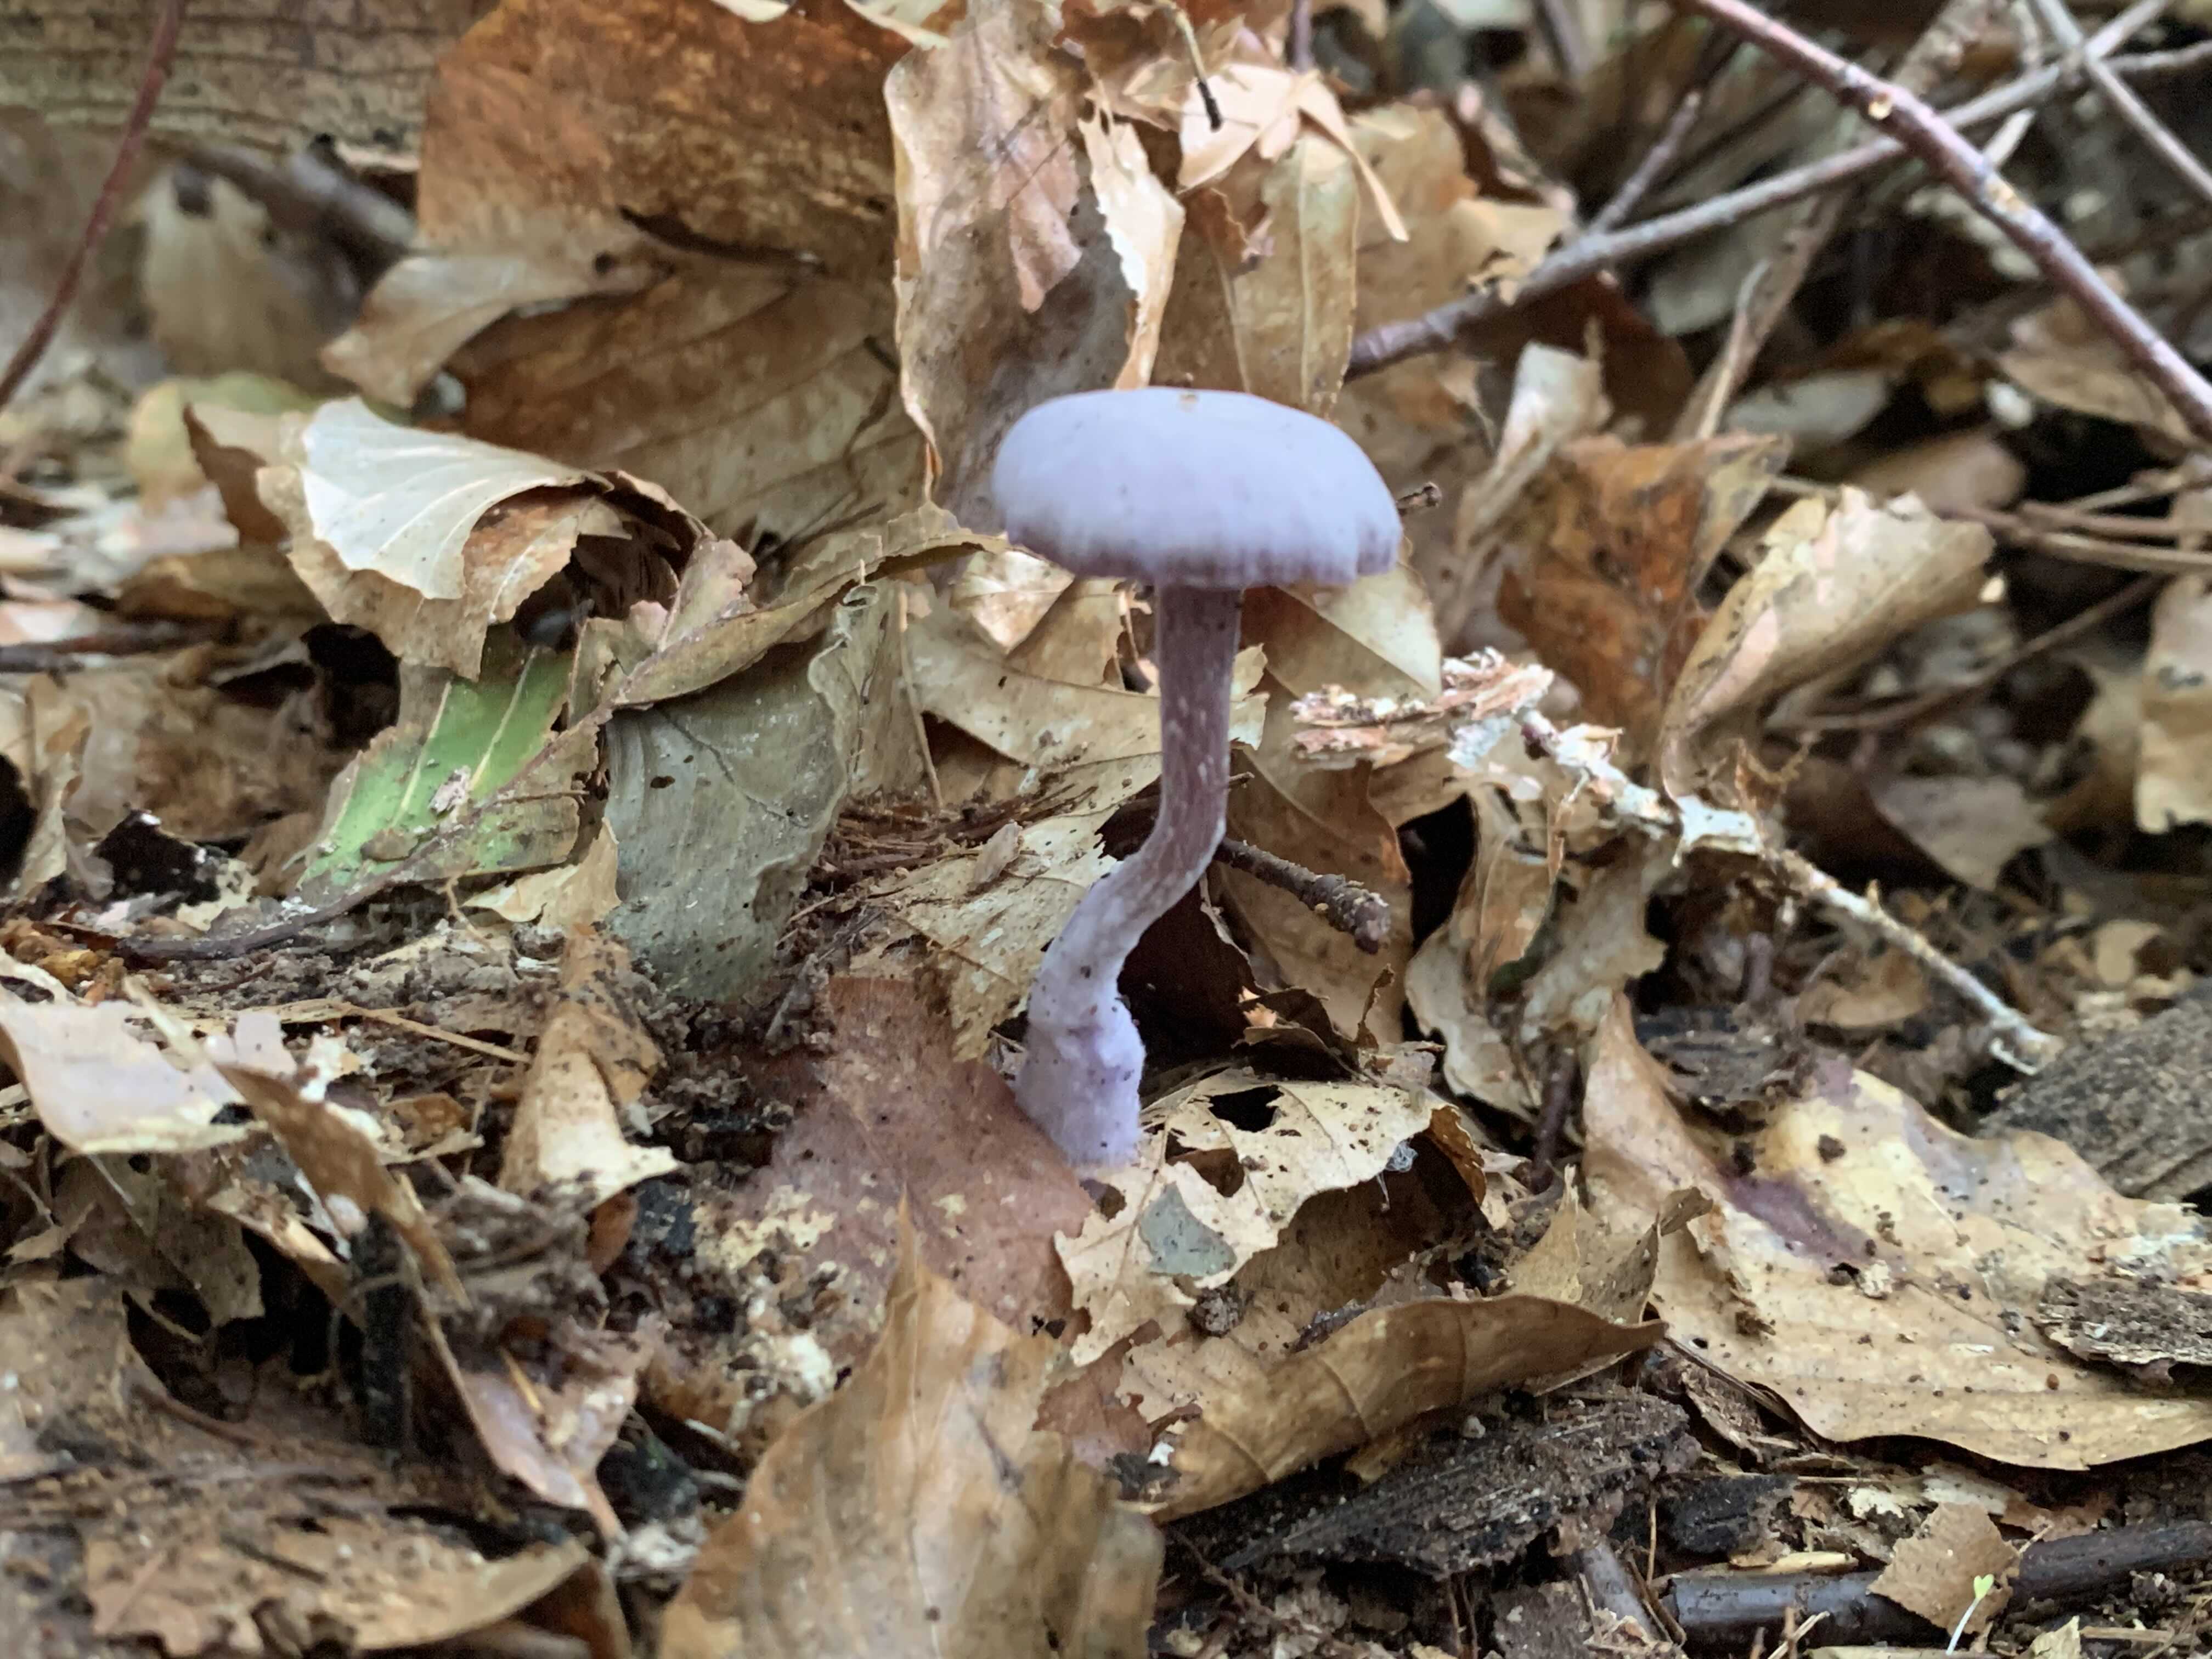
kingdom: Fungi
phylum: Basidiomycota
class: Agaricomycetes
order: Agaricales
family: Hydnangiaceae
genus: Laccaria
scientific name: Laccaria amethystina
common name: violet ametysthat
